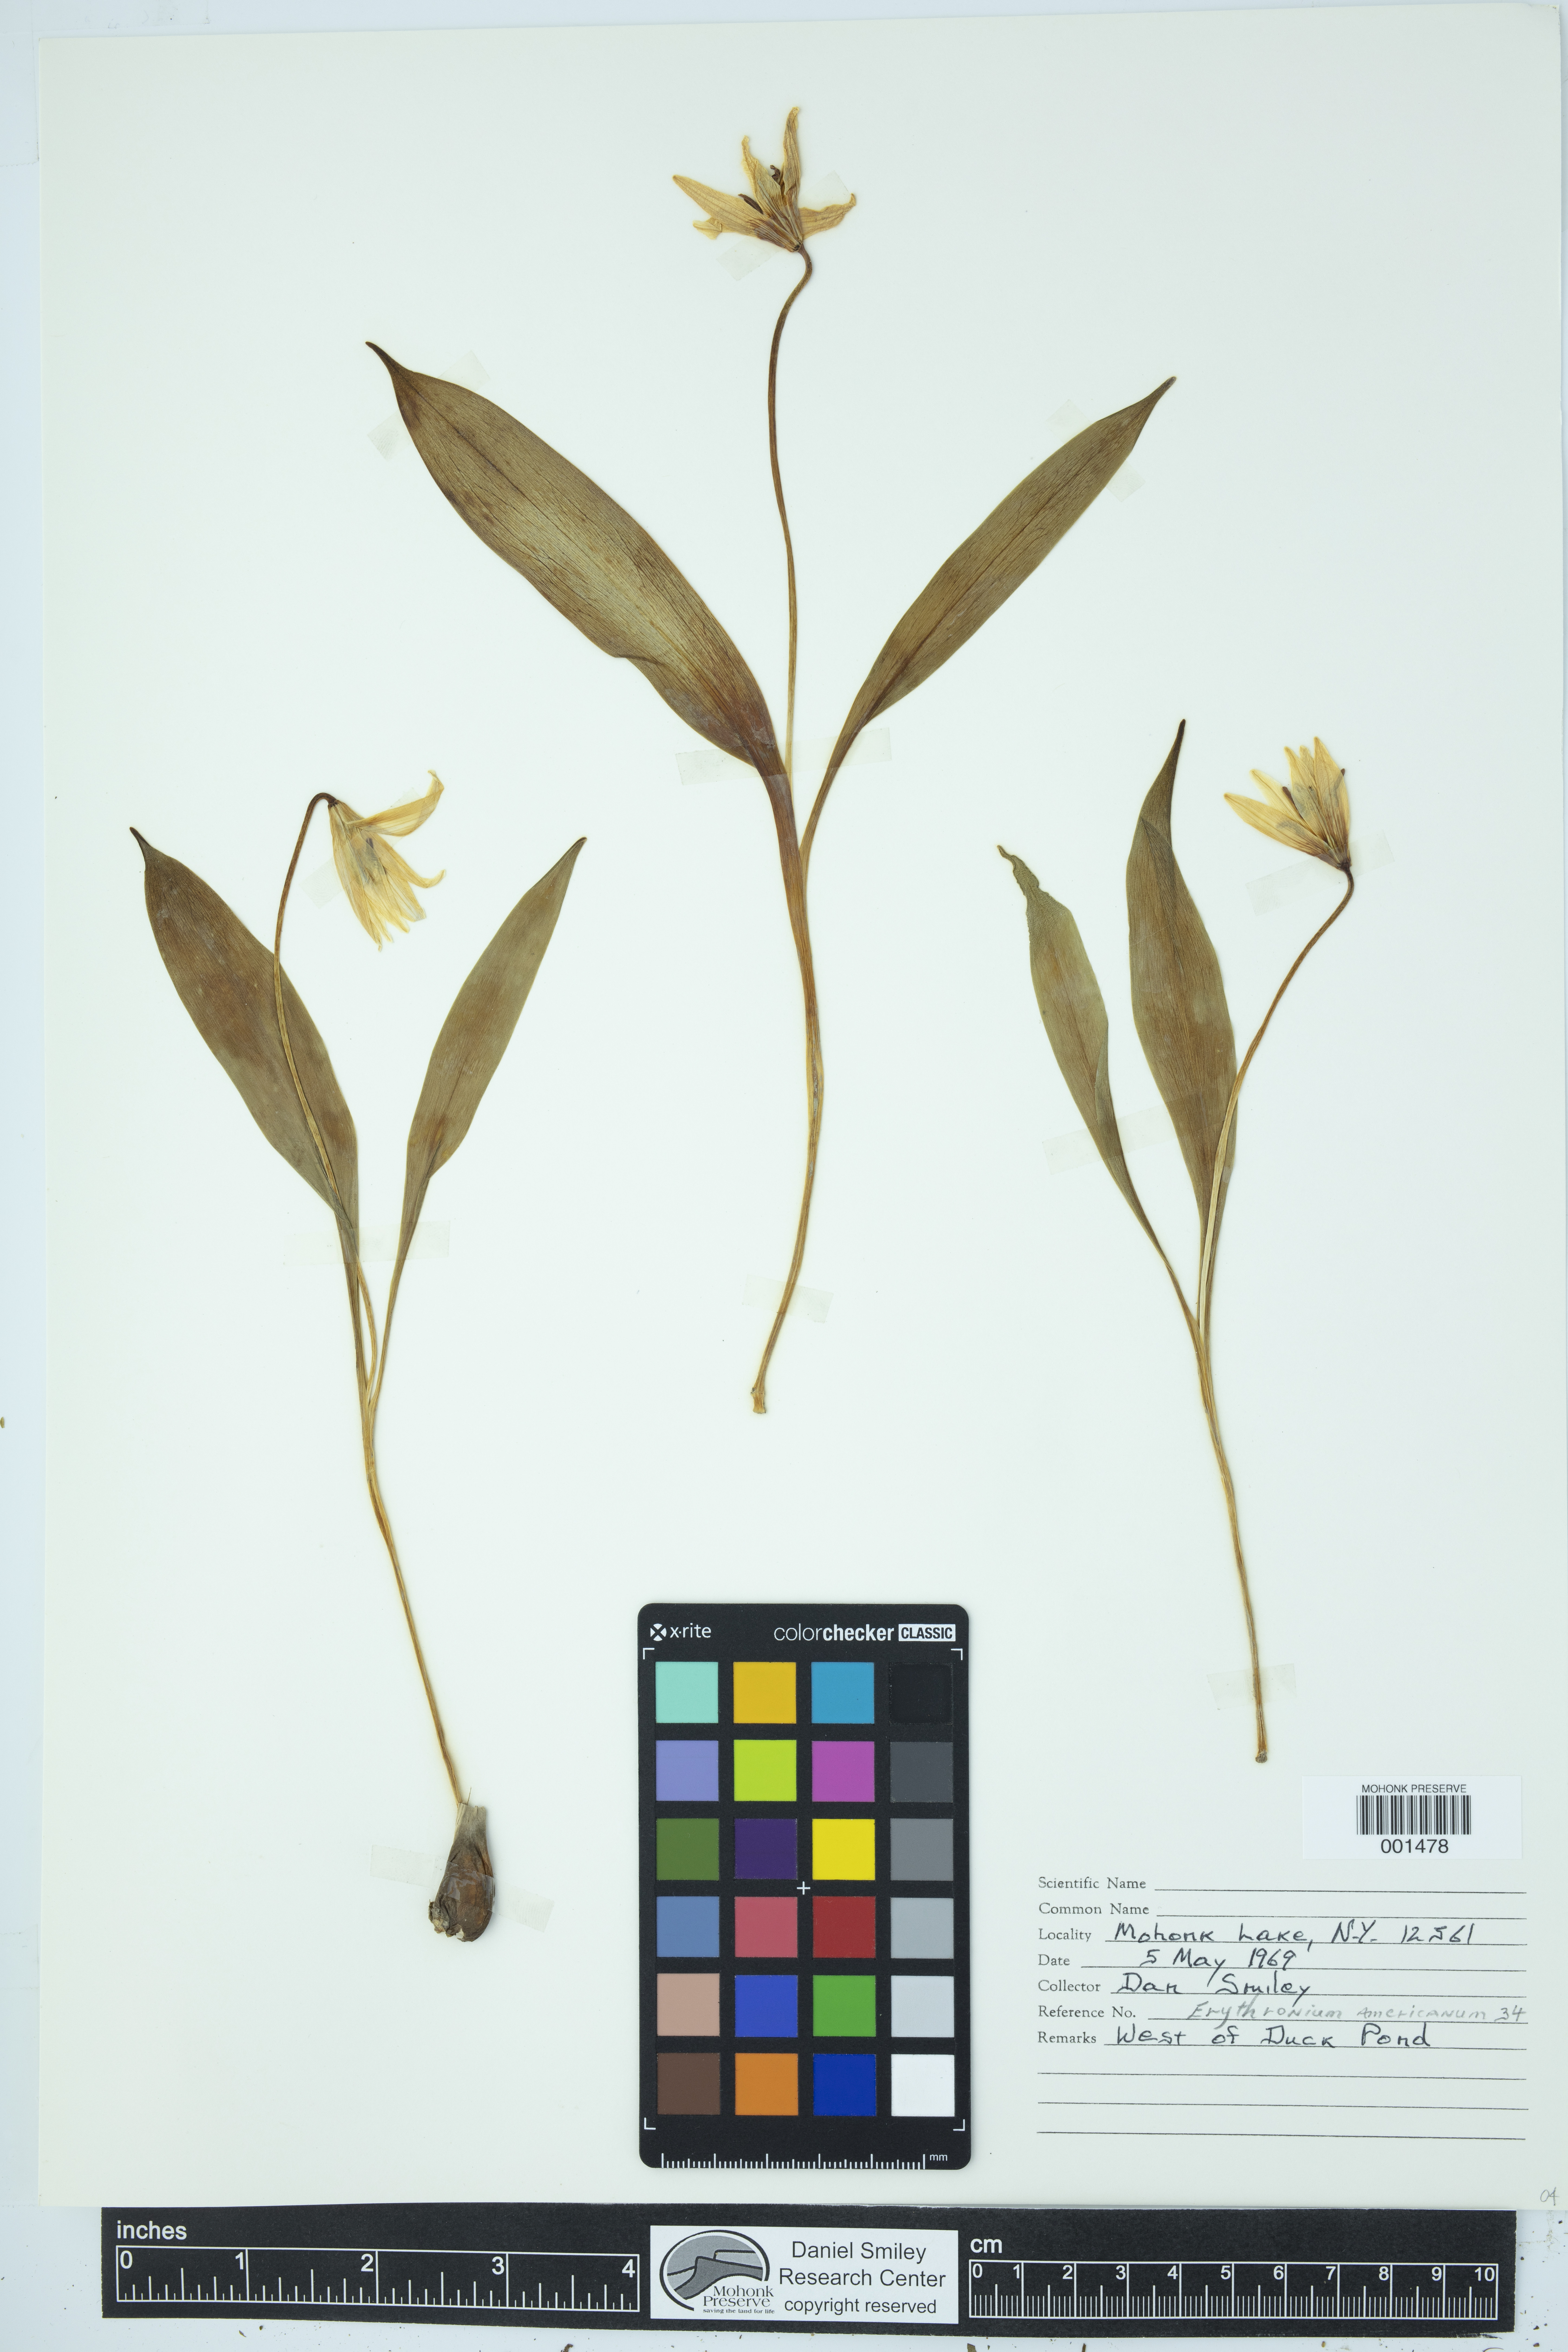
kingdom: Plantae
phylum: Tracheophyta
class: Liliopsida
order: Liliales
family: Liliaceae
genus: Erythronium
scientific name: Erythronium americanum
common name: Yellow adder's-tongue
